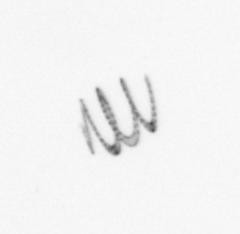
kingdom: Chromista
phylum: Ochrophyta
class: Bacillariophyceae
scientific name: Bacillariophyceae
